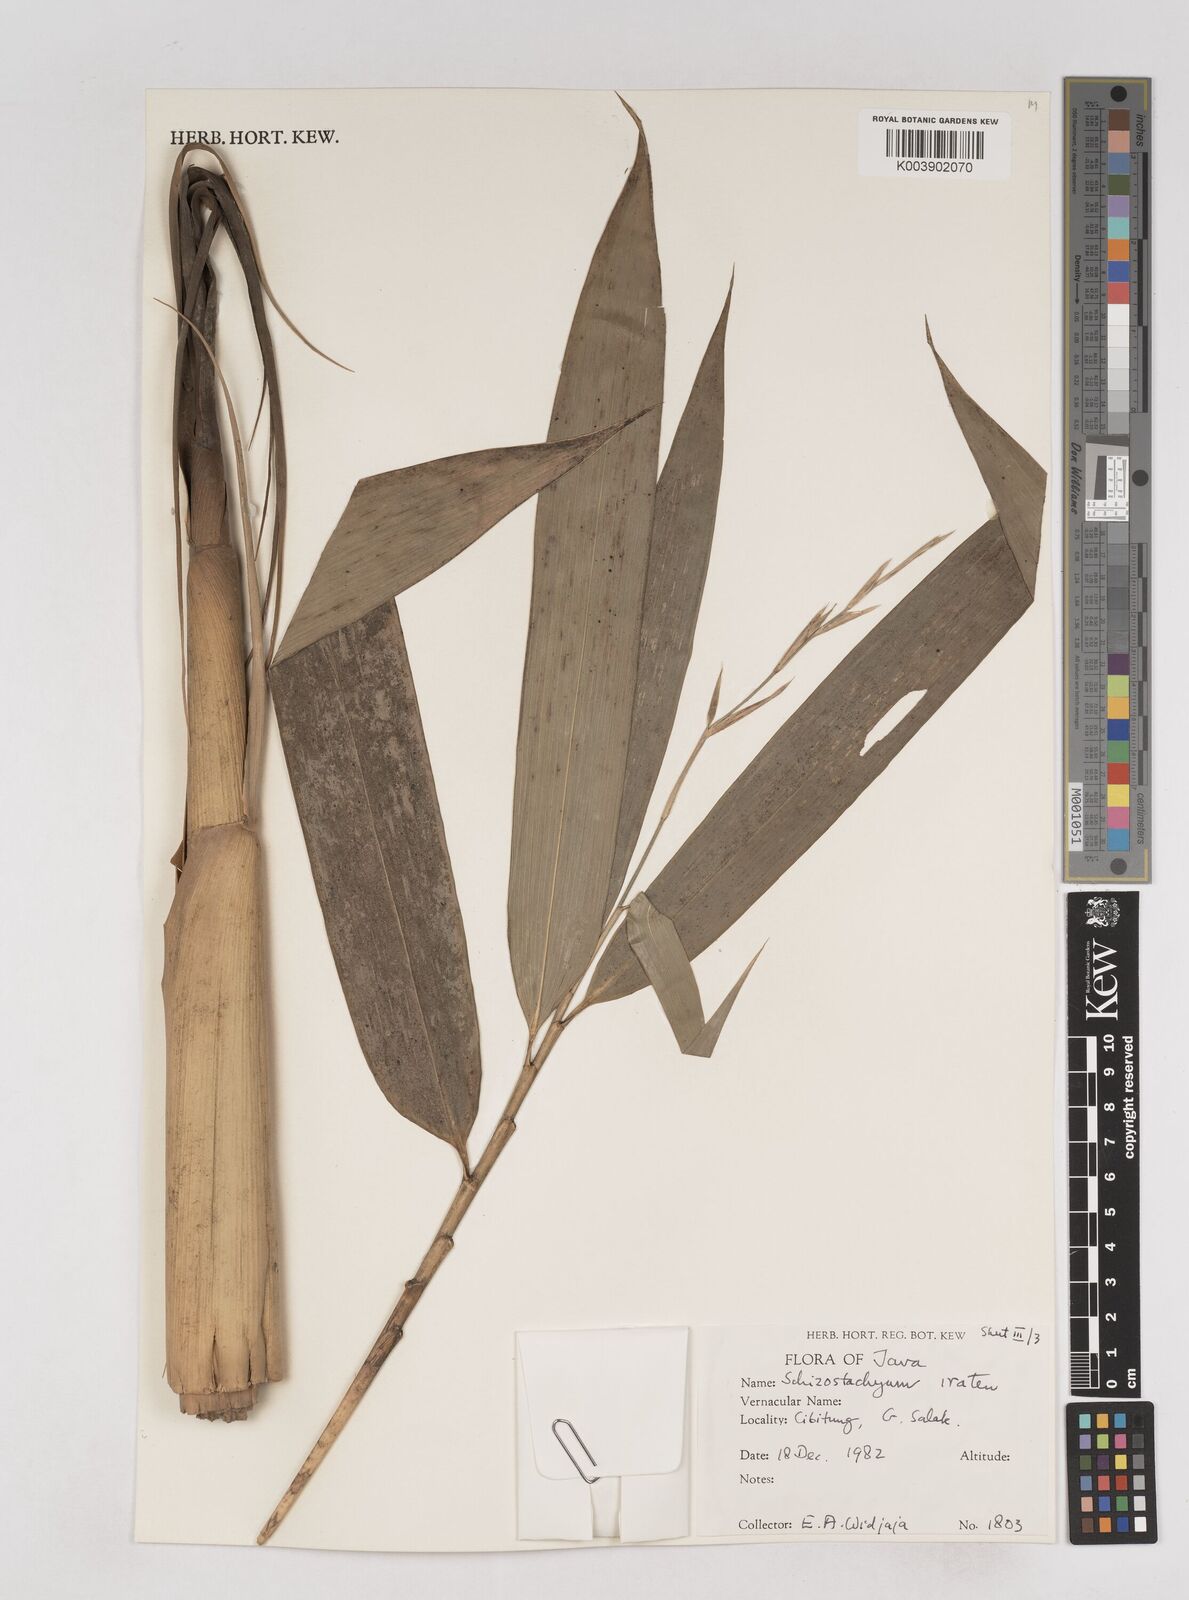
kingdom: Plantae
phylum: Tracheophyta
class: Liliopsida
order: Poales
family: Poaceae
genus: Schizostachyum
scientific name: Schizostachyum iraten
